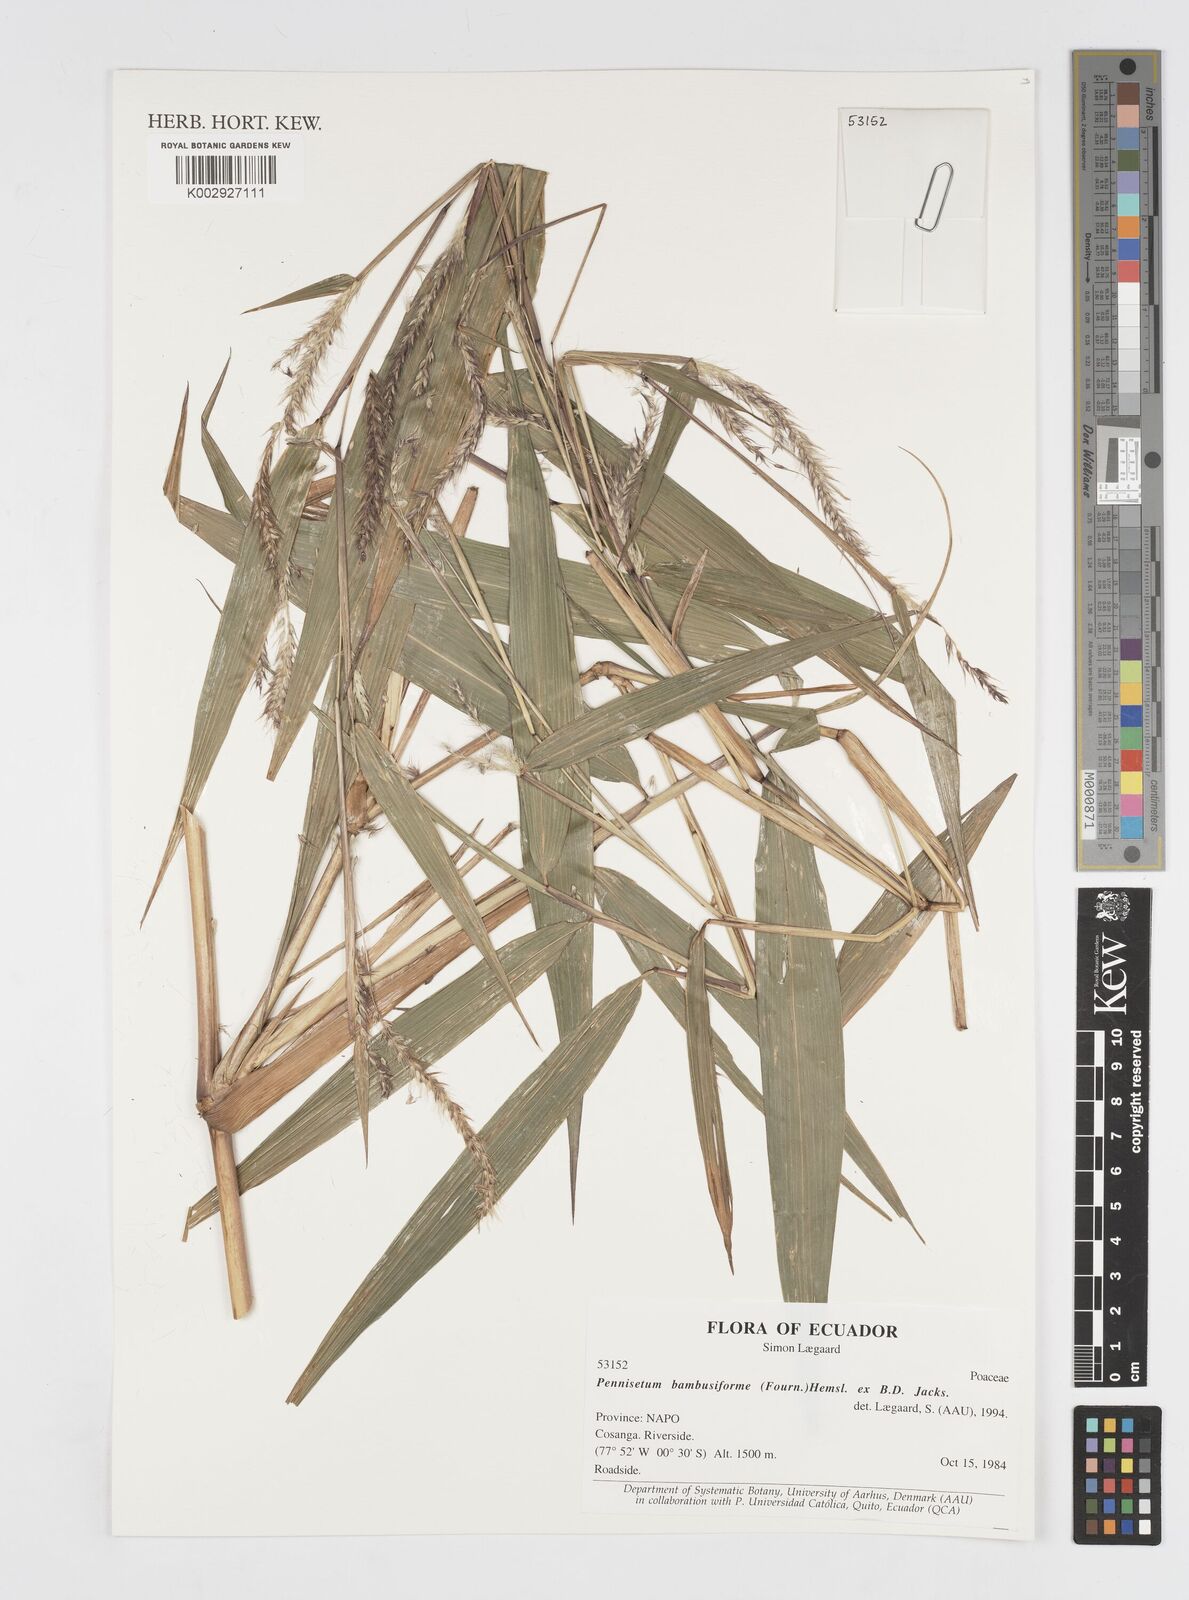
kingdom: Plantae
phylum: Tracheophyta
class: Liliopsida
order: Poales
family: Poaceae
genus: Cenchrus
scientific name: Cenchrus tristachyus
